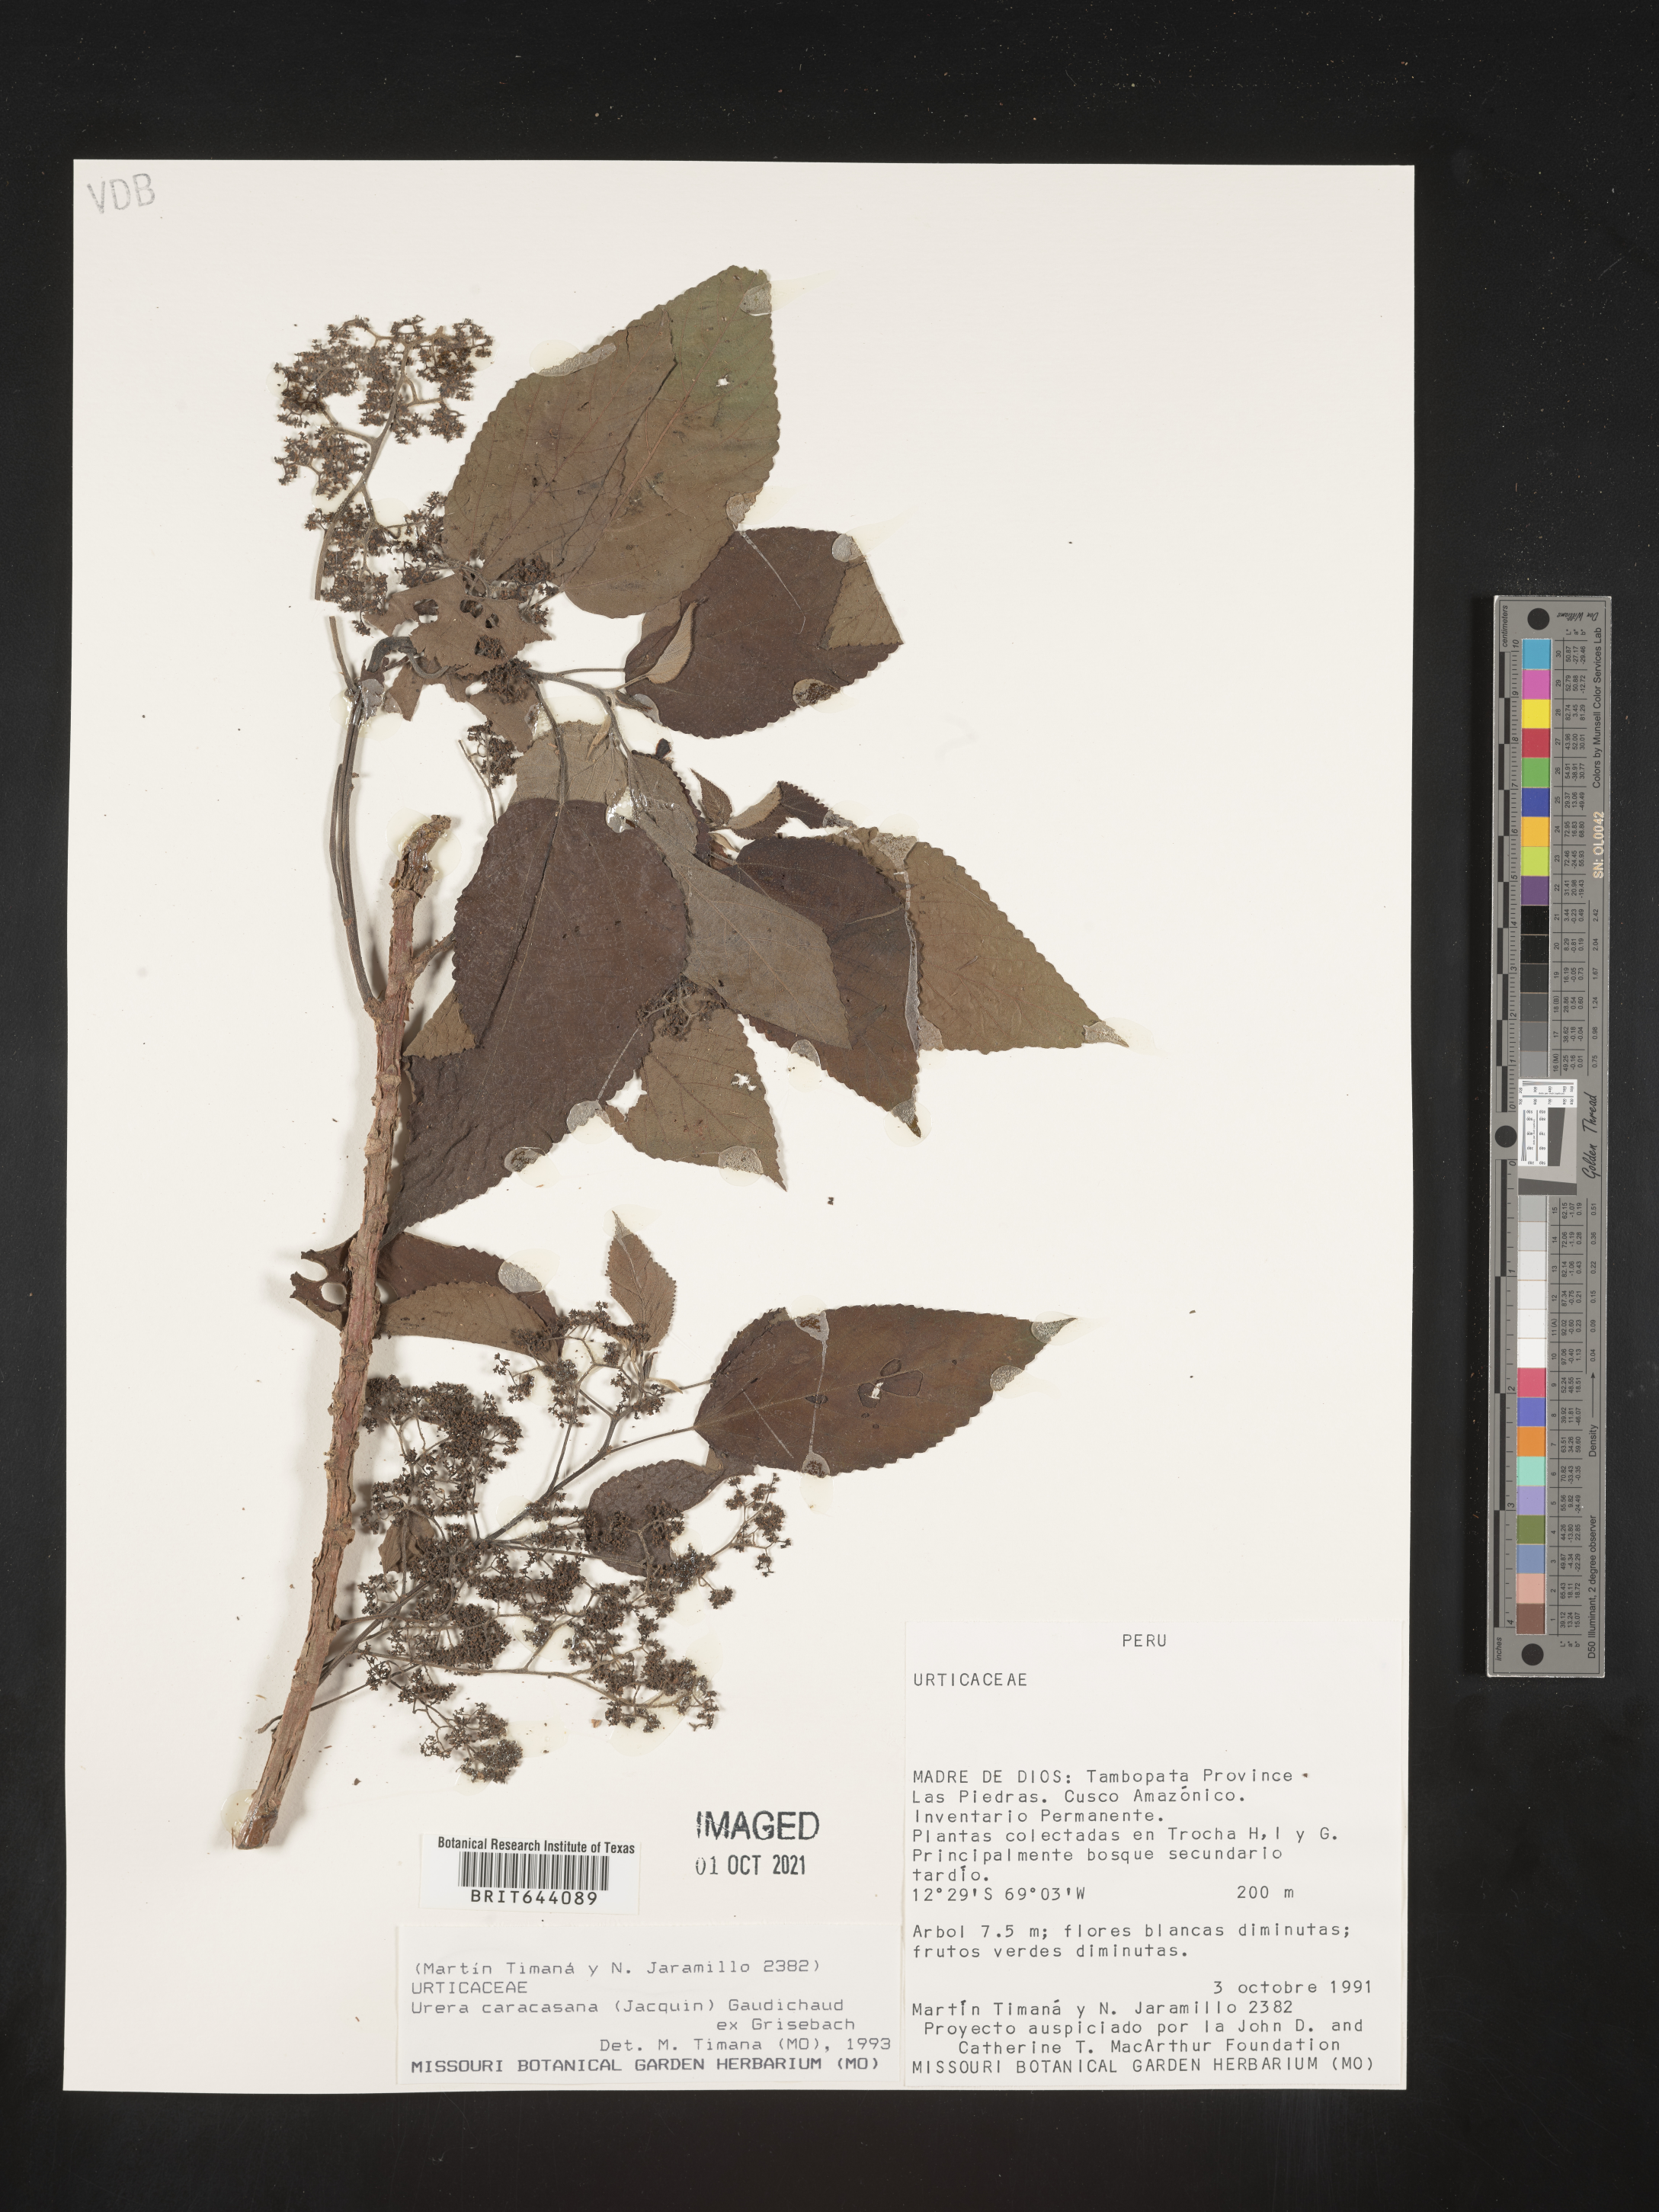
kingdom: Plantae
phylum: Tracheophyta
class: Magnoliopsida
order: Rosales
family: Urticaceae
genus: Urera
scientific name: Urera
